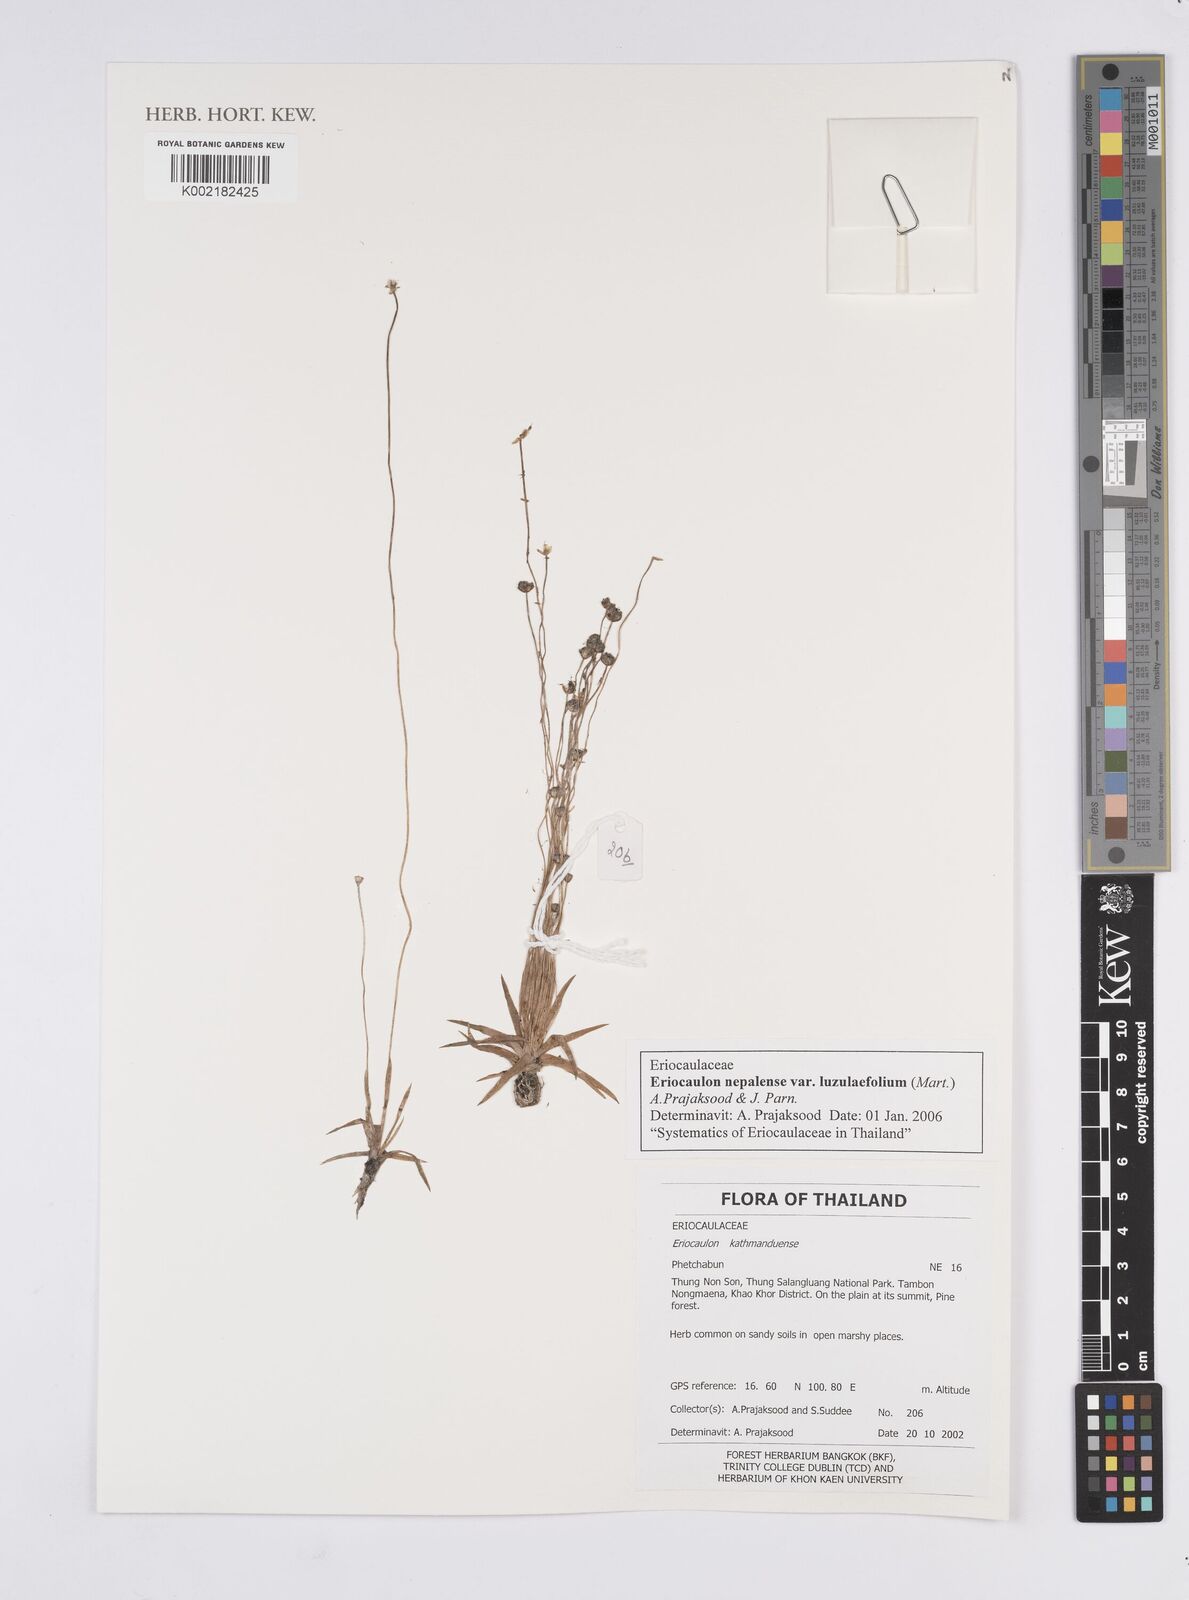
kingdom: Plantae
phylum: Tracheophyta
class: Liliopsida
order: Poales
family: Eriocaulaceae
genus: Eriocaulon
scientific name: Eriocaulon nepalense
